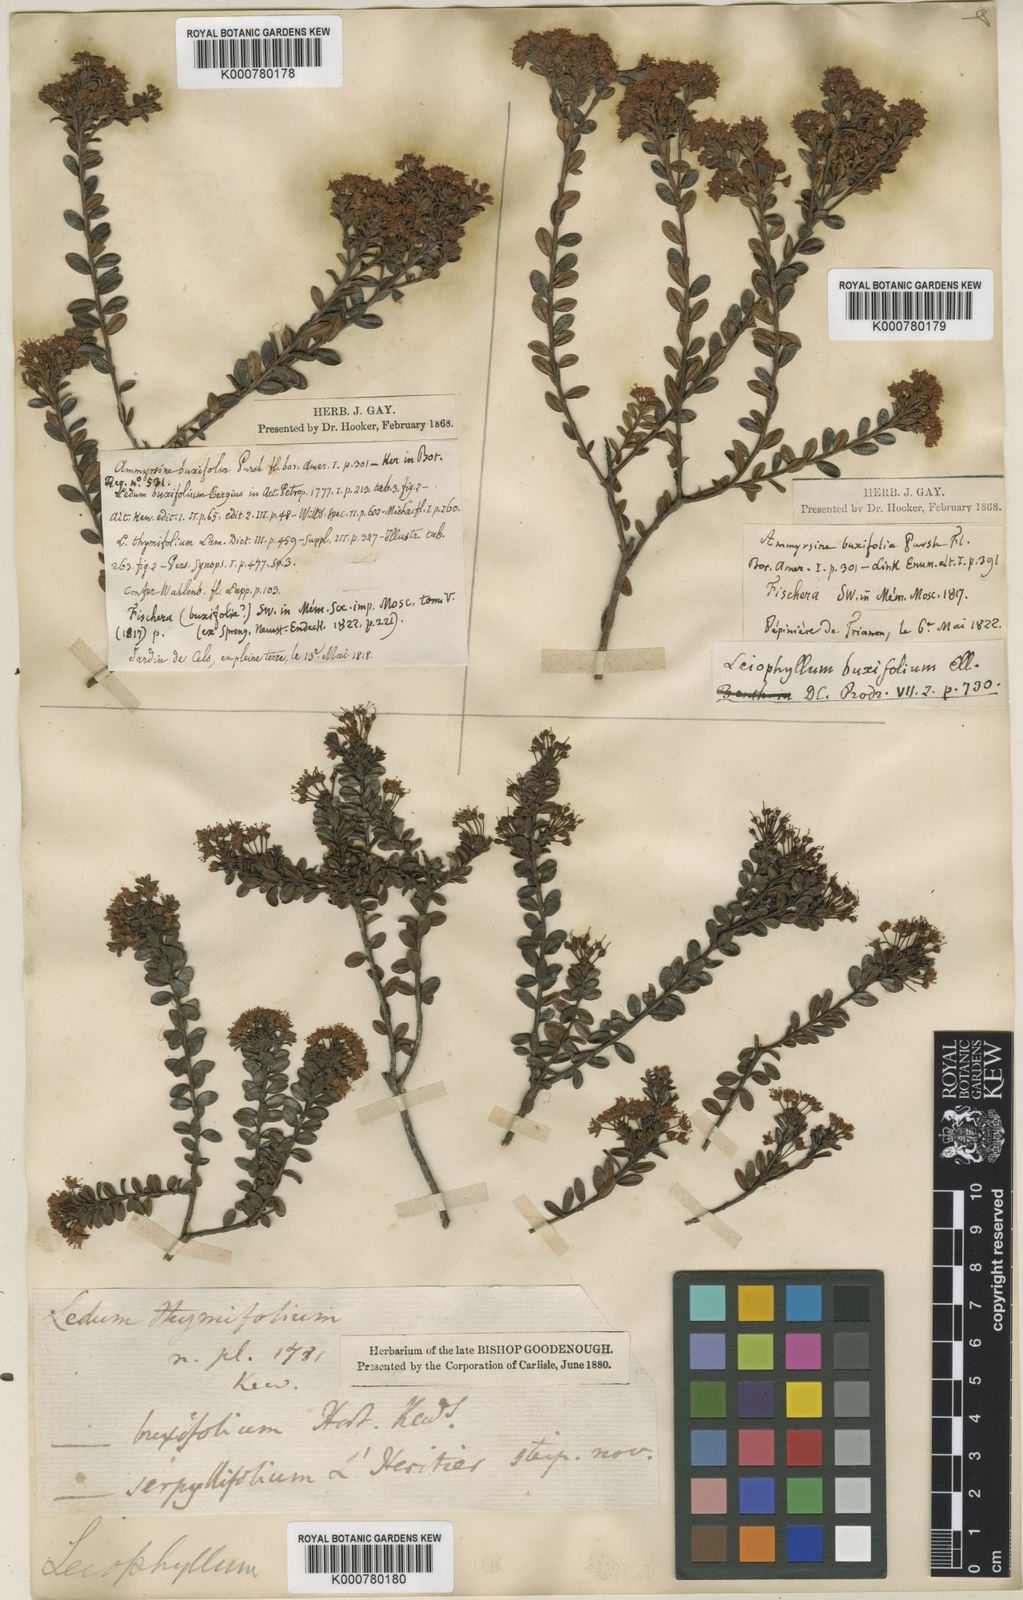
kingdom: Plantae
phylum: Tracheophyta
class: Magnoliopsida
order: Ericales
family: Ericaceae
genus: Kalmia
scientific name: Kalmia buxifolia
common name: Sandmyrtle
